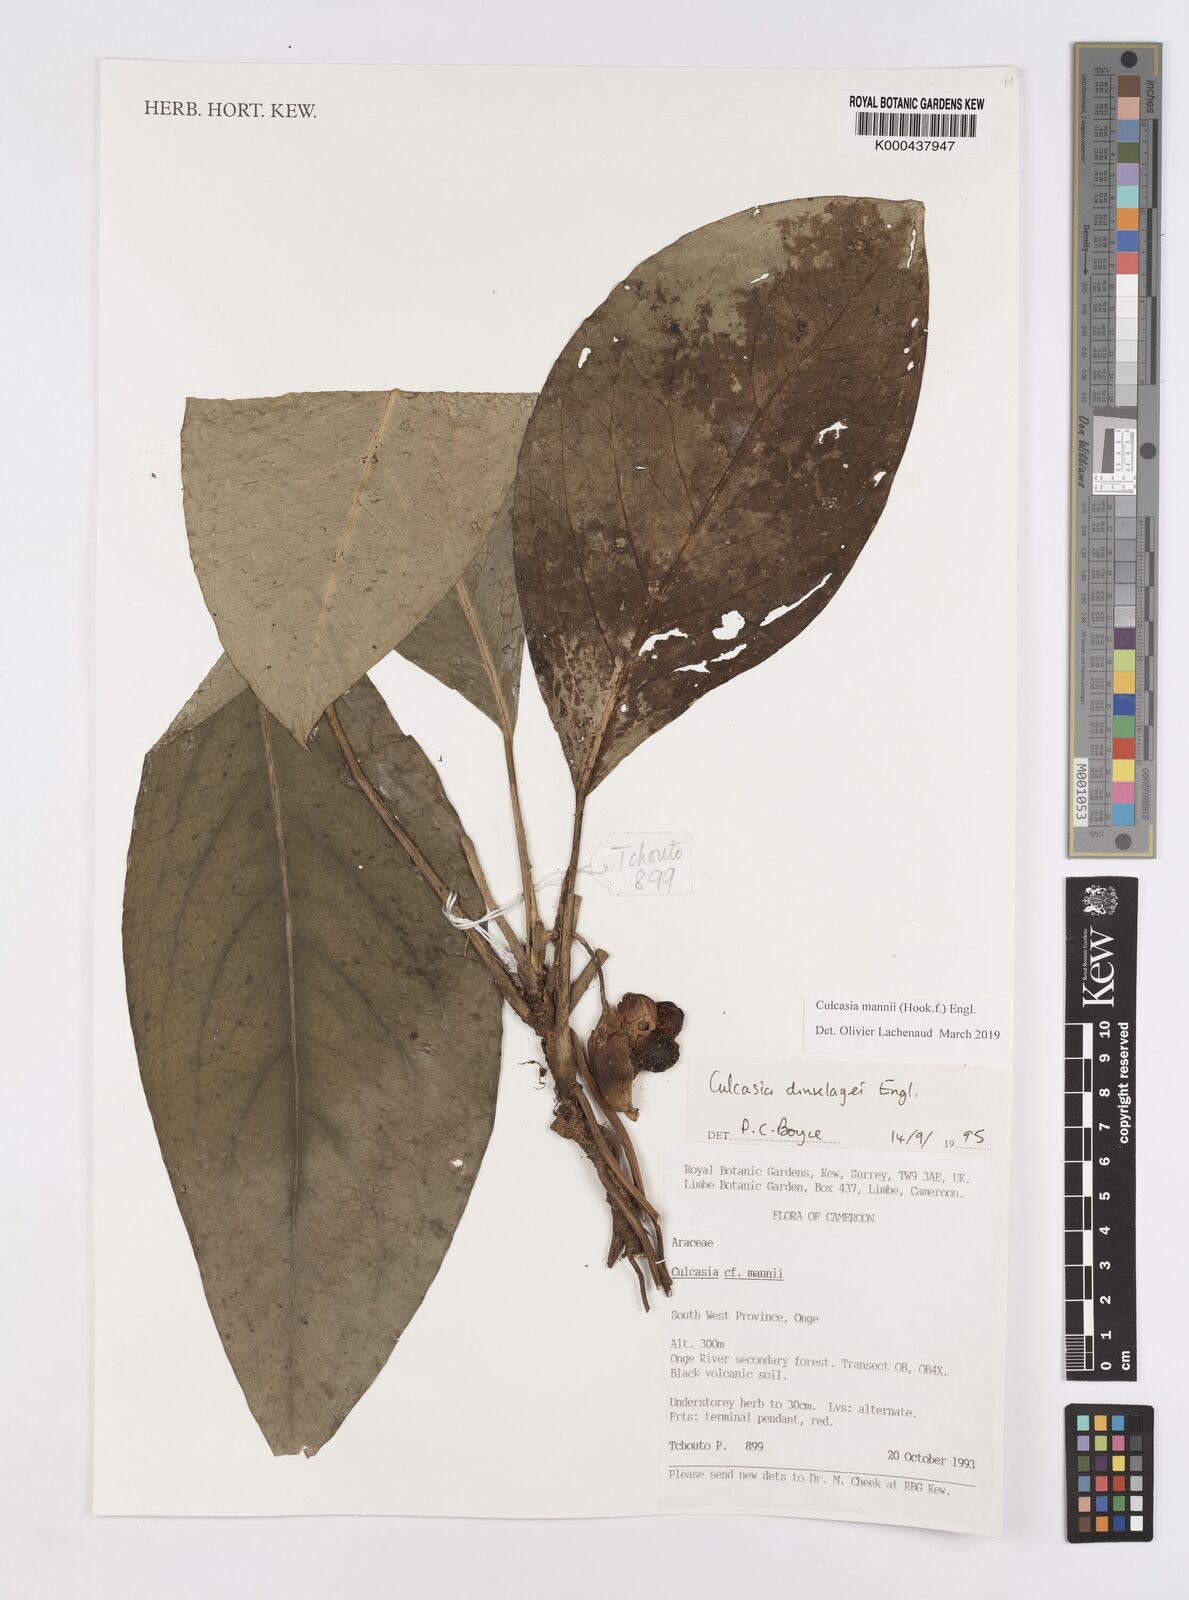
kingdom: Plantae
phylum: Tracheophyta
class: Liliopsida
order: Alismatales
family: Araceae
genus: Culcasia
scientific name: Culcasia mannii
